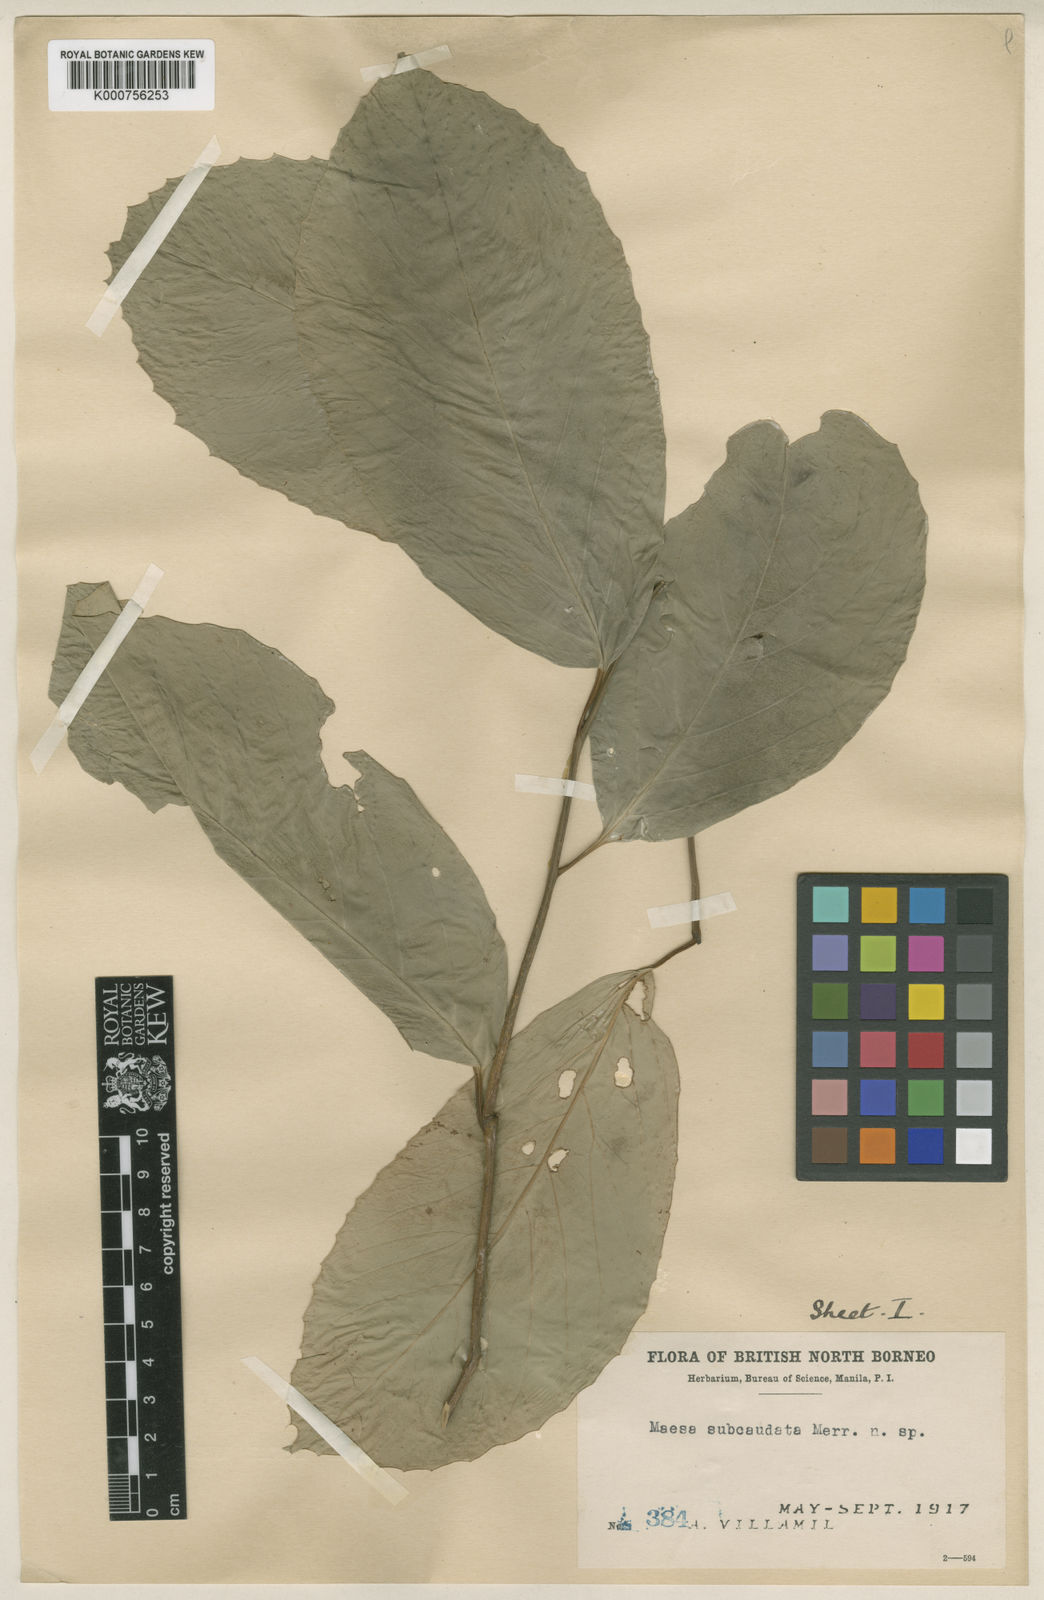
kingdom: Plantae
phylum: Tracheophyta
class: Magnoliopsida
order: Ericales
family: Primulaceae
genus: Maesa
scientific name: Maesa macrocarpa
